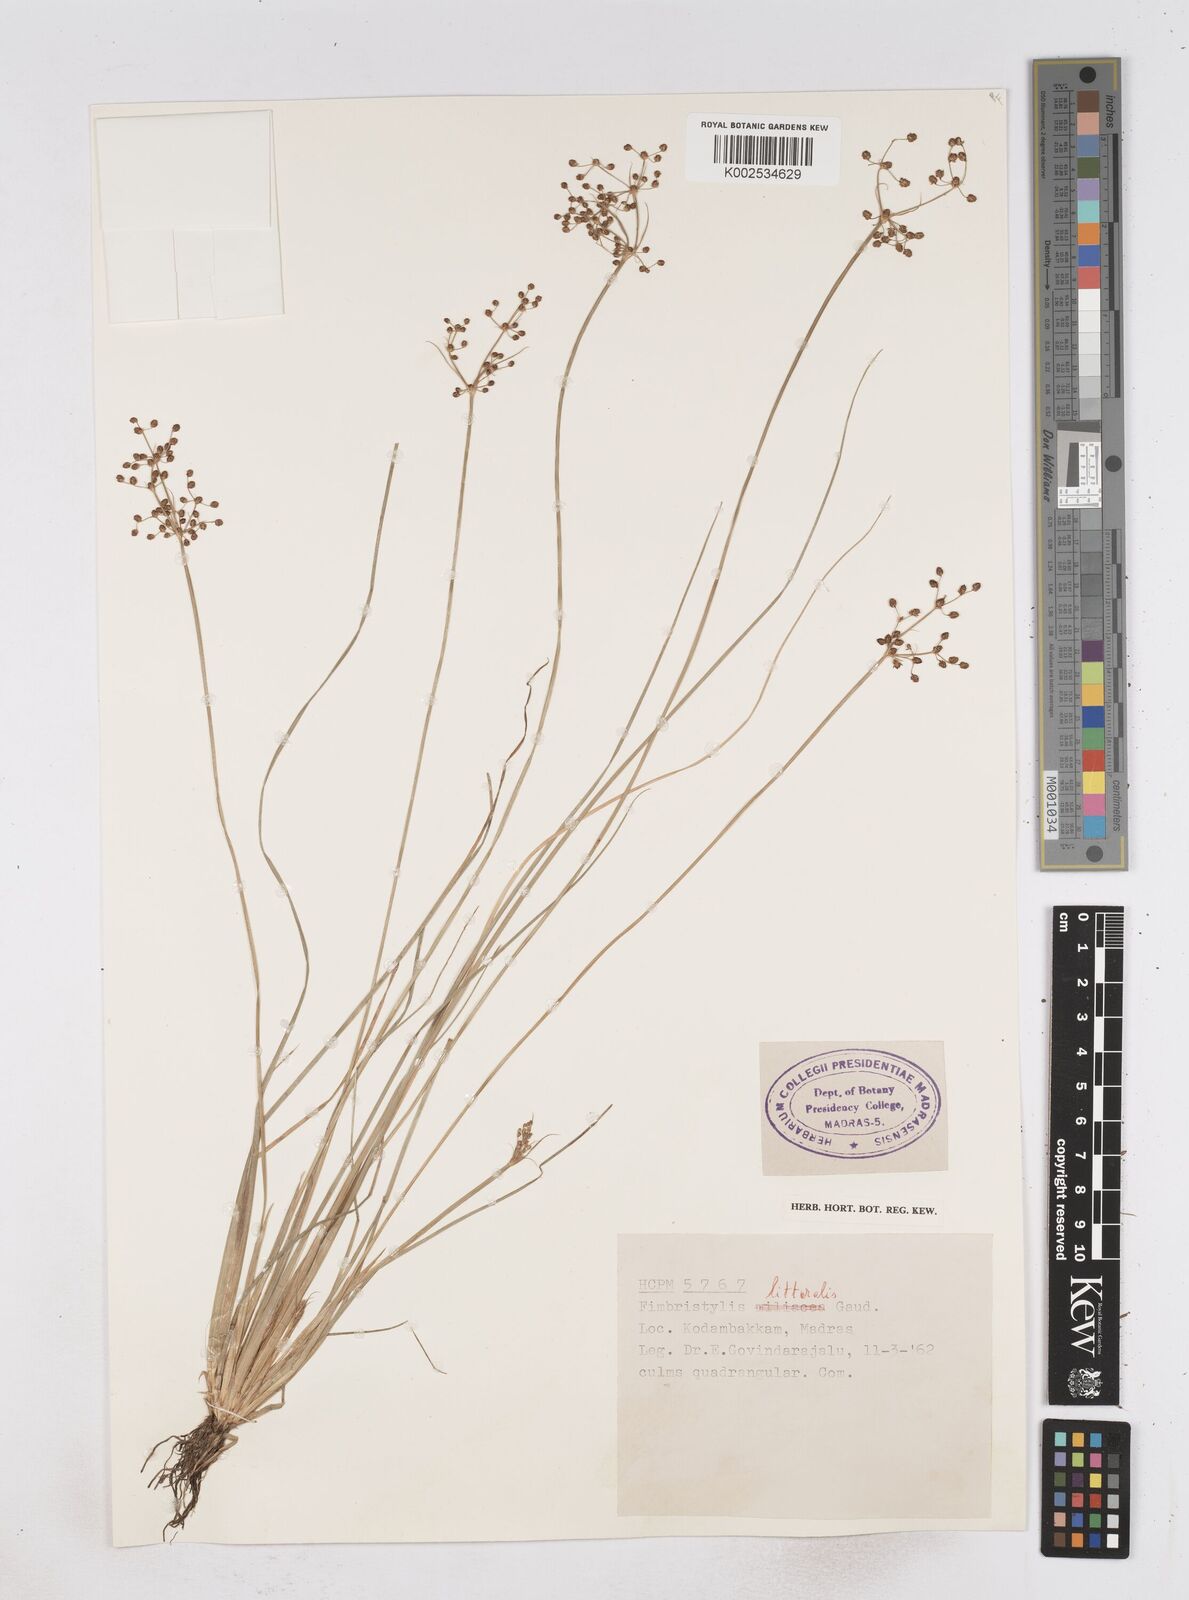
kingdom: Plantae
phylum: Tracheophyta
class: Liliopsida
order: Poales
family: Cyperaceae
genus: Fimbristylis
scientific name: Fimbristylis littoralis
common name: Fimbry
